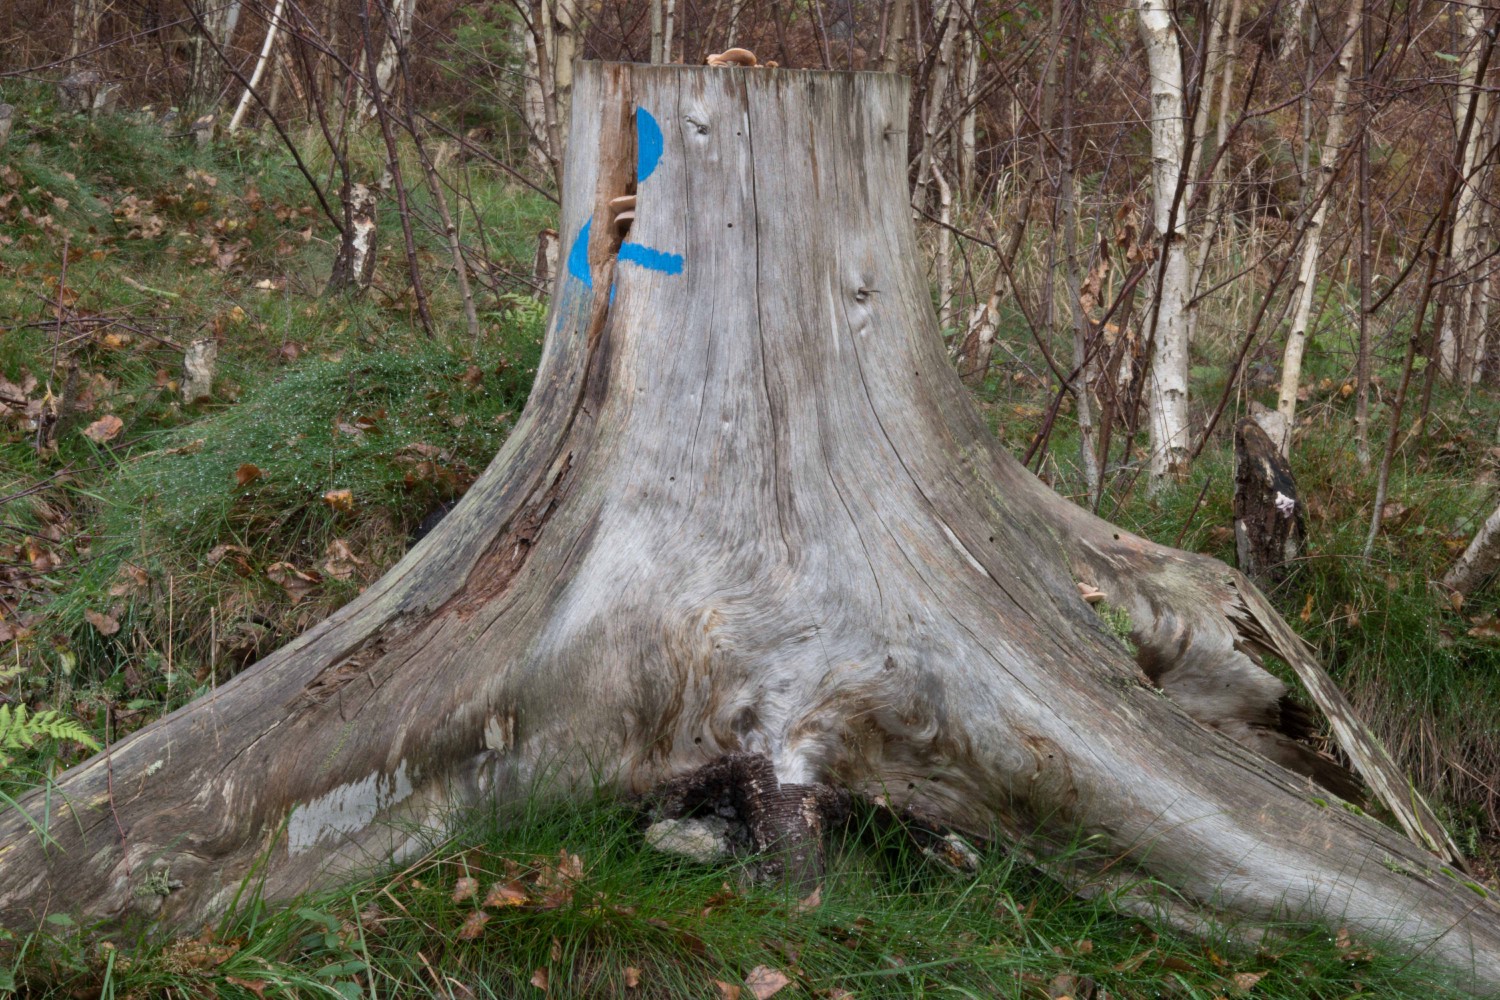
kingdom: Fungi
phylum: Basidiomycota
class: Agaricomycetes
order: Russulales
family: Auriscalpiaceae
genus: Lentinellus
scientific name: Lentinellus ursinus
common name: børstehåret savbladhat
